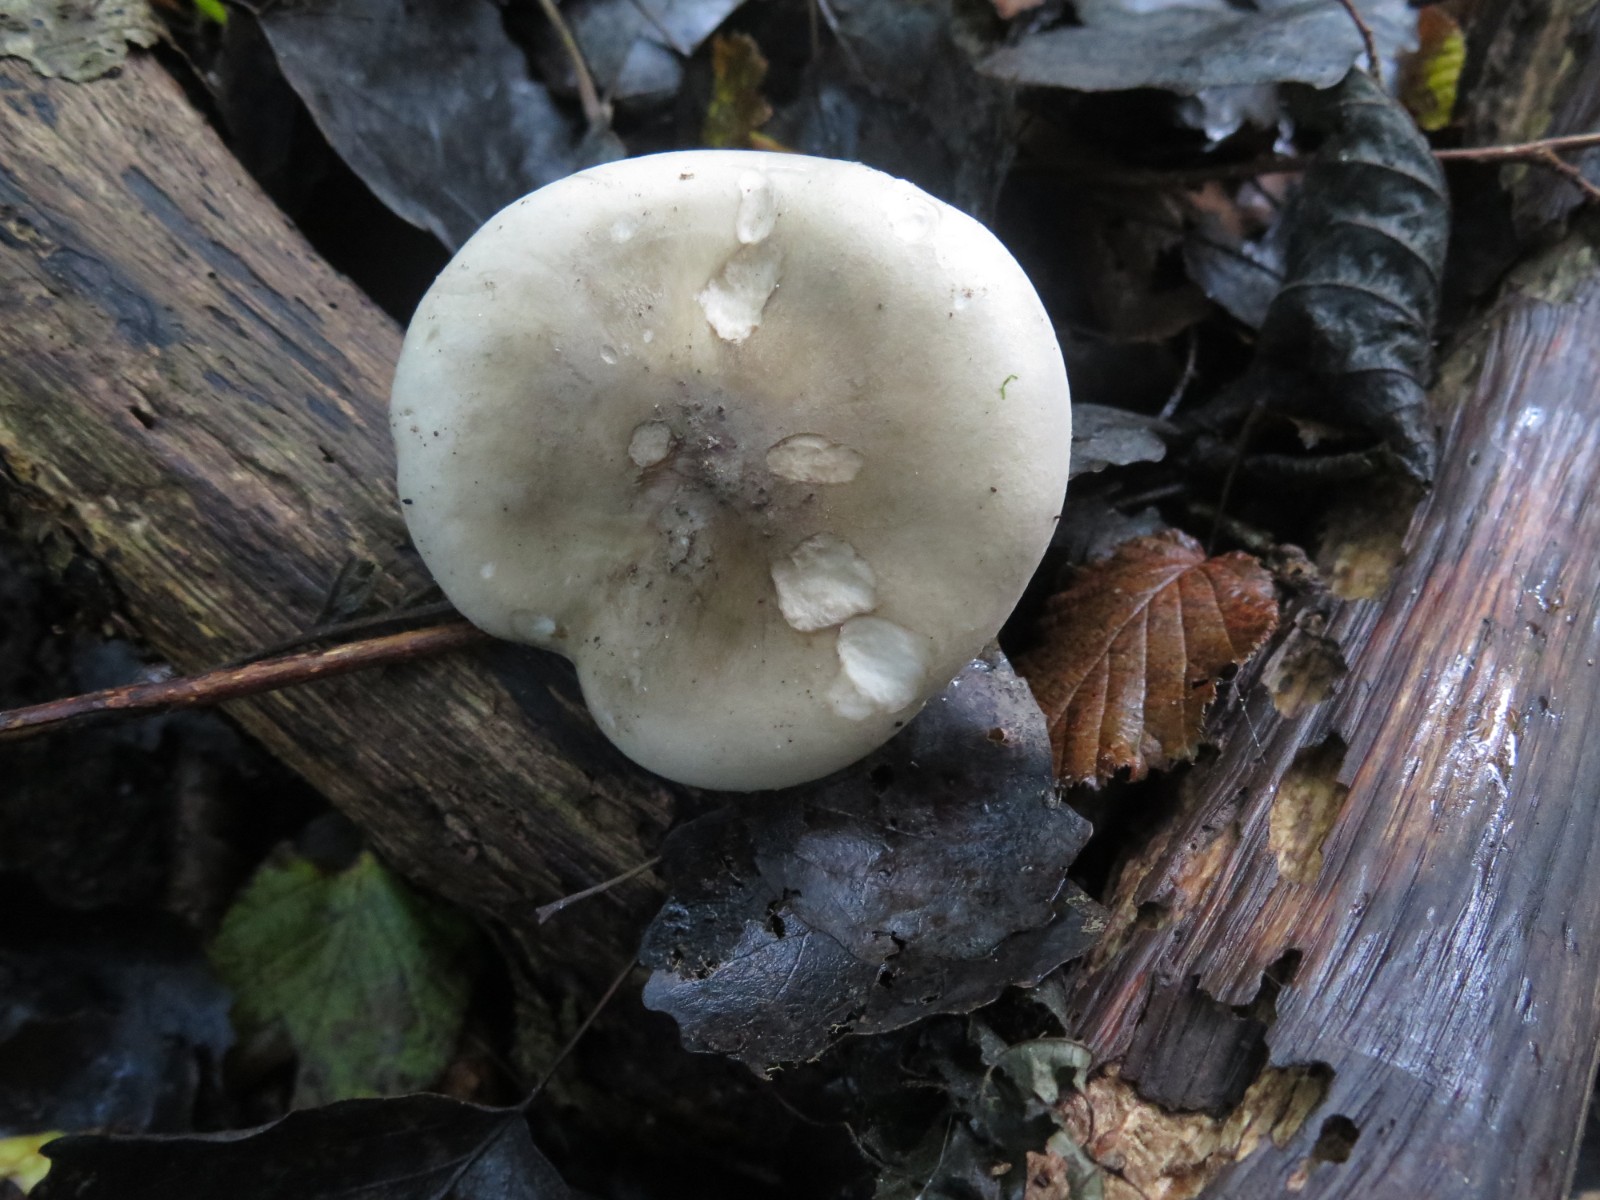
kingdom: Fungi
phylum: Basidiomycota
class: Agaricomycetes
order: Agaricales
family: Tricholomataceae
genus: Clitocybe
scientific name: Clitocybe nebularis
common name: tåge-tragthat
